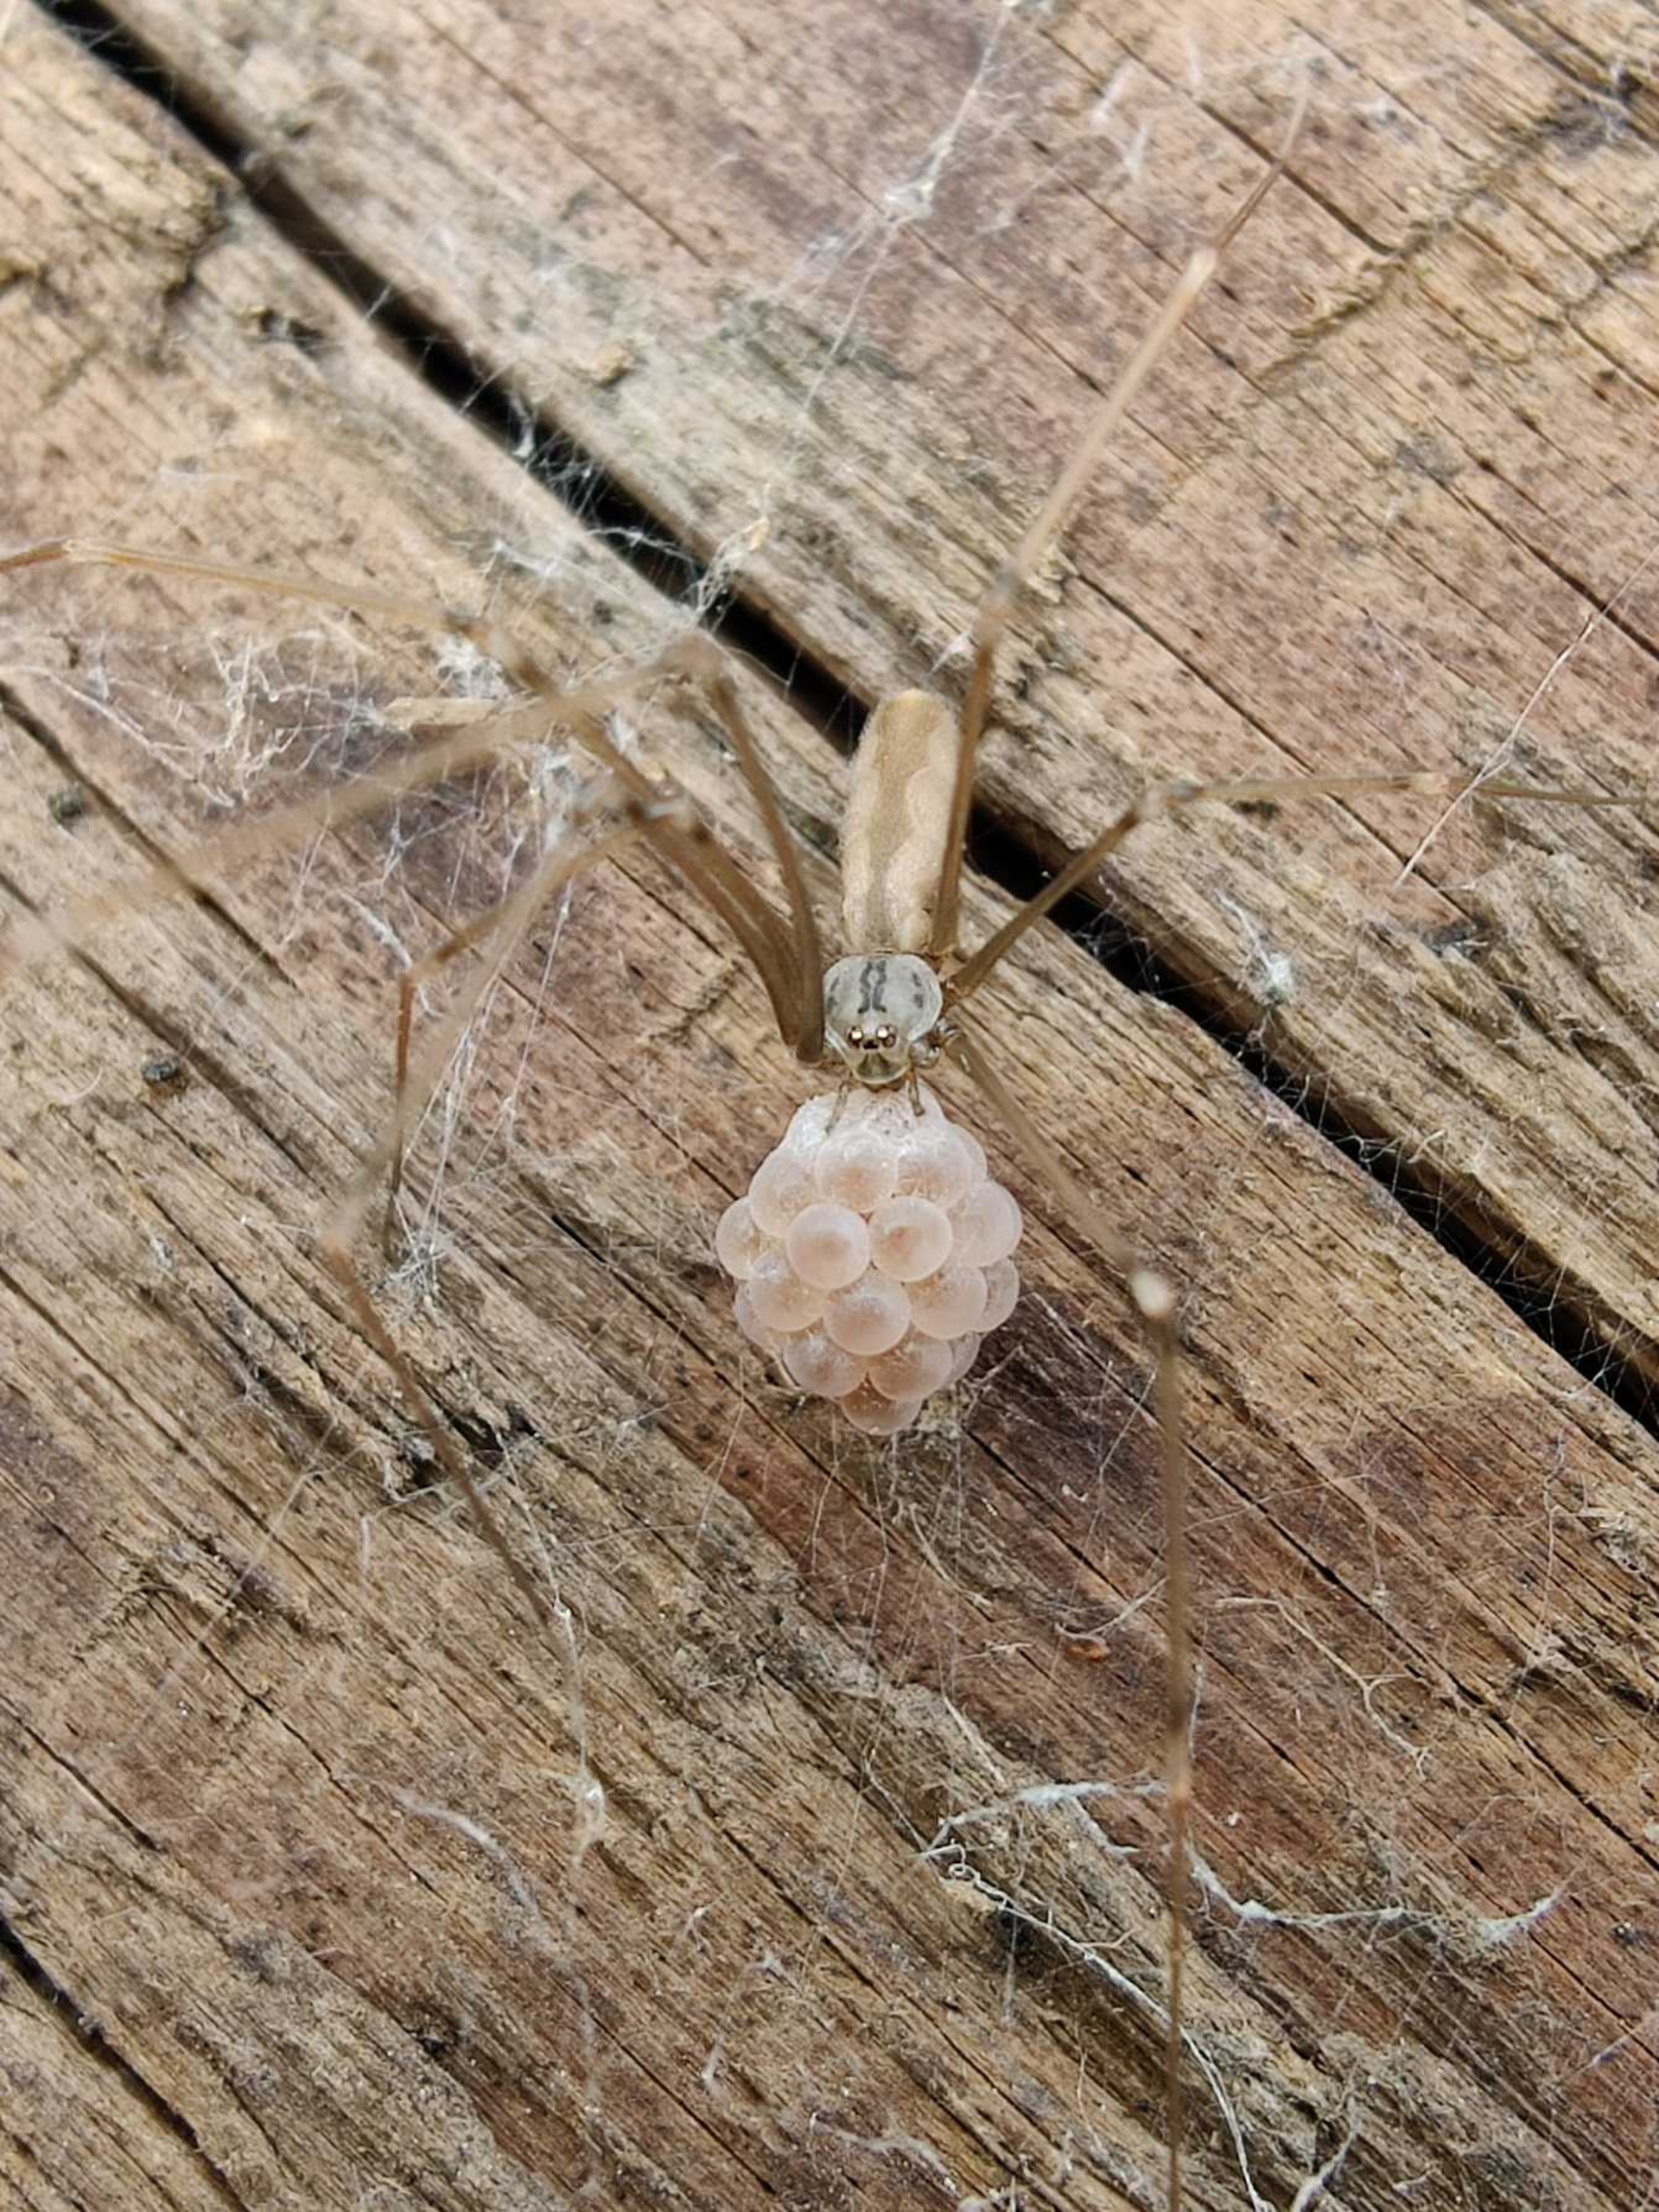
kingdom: Animalia
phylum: Arthropoda
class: Arachnida
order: Araneae
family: Pholcidae
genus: Pholcus
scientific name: Pholcus opilionoides
